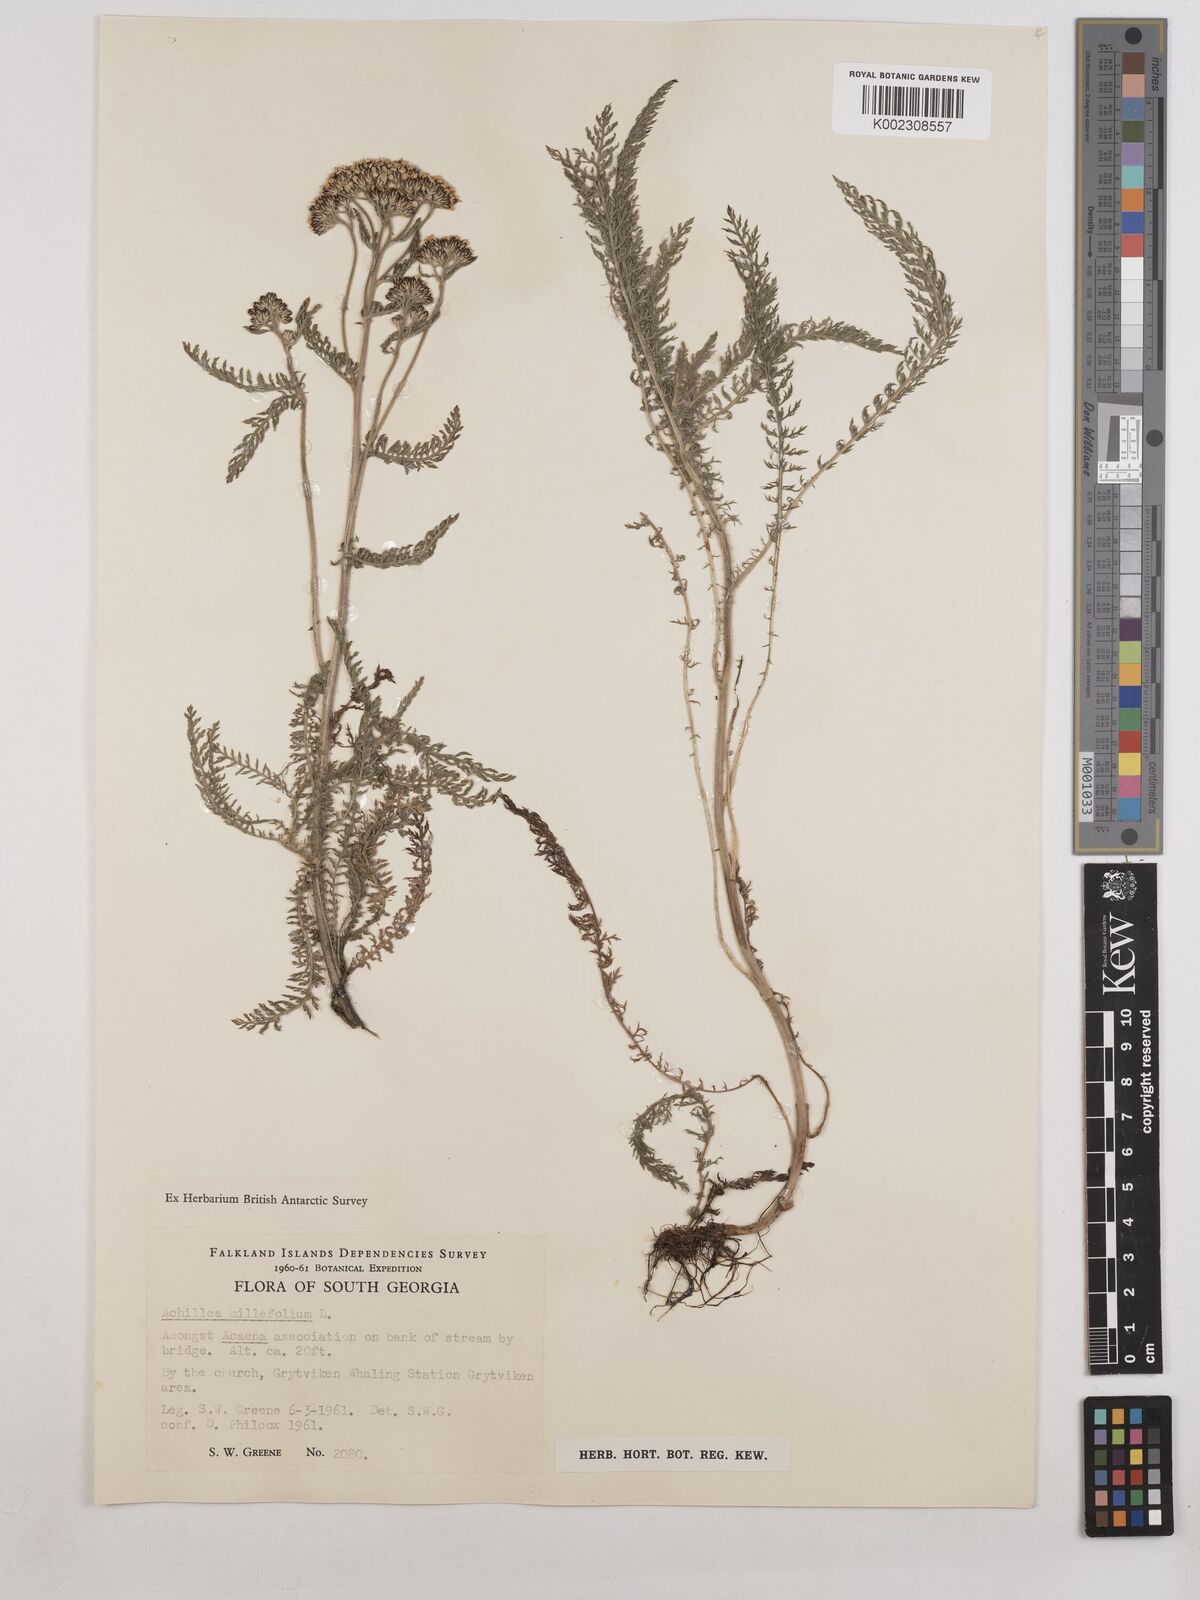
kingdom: Plantae
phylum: Tracheophyta
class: Magnoliopsida
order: Asterales
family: Asteraceae
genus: Achillea
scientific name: Achillea millefolium
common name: Yarrow
